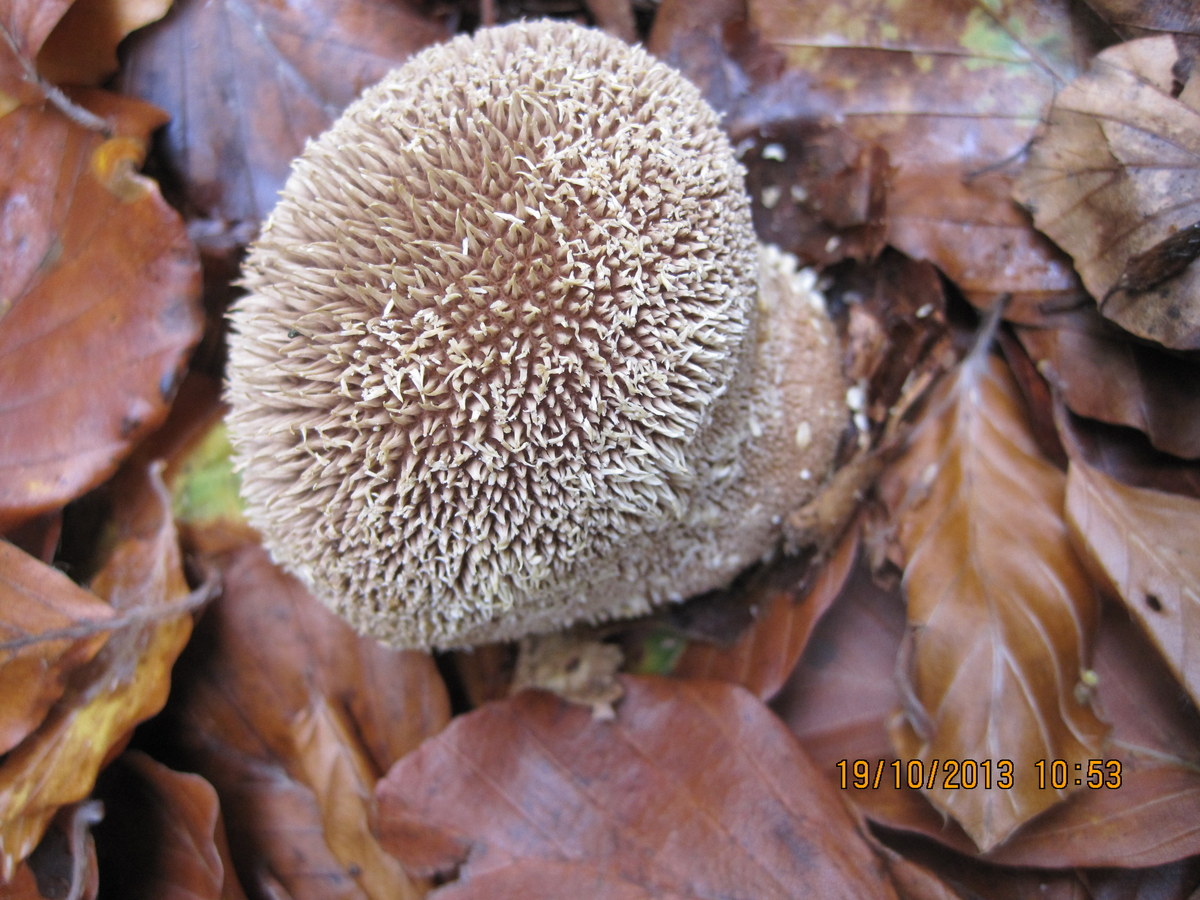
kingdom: Fungi
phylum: Basidiomycota
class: Agaricomycetes
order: Agaricales
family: Lycoperdaceae
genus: Lycoperdon
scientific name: Lycoperdon echinatum
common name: pindsvine-støvbold
